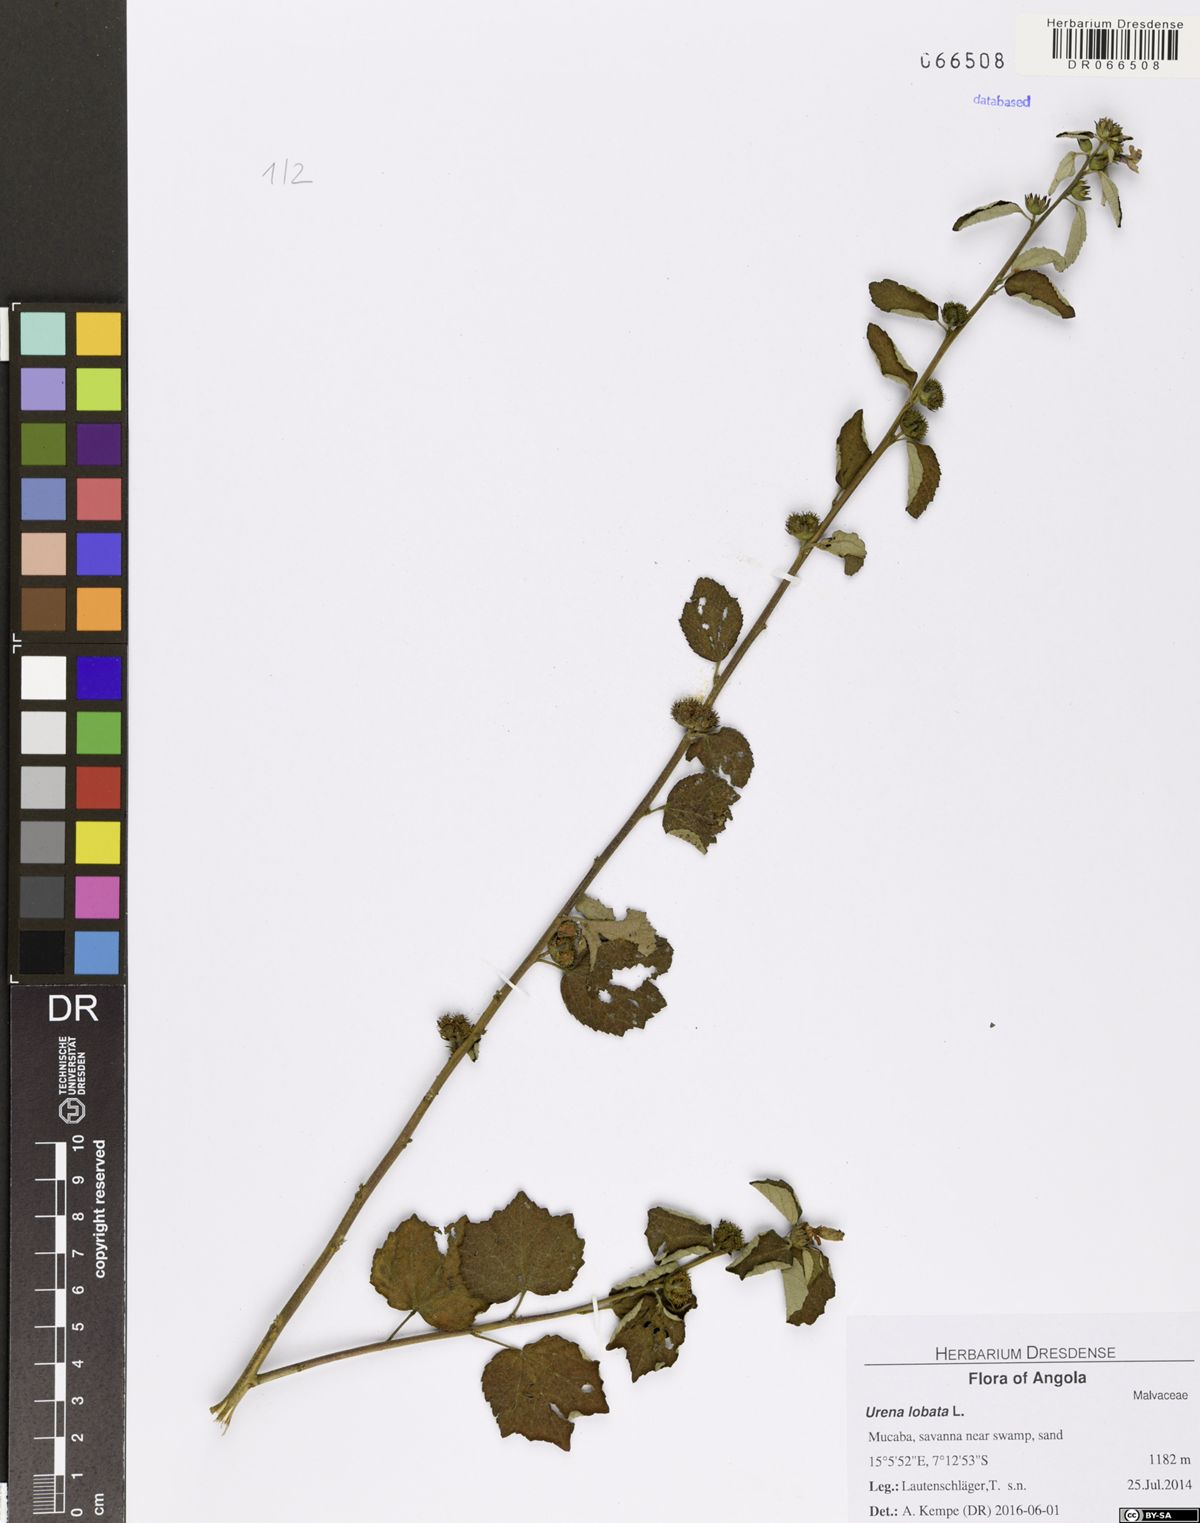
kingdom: Plantae
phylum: Tracheophyta
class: Magnoliopsida
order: Malvales
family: Malvaceae
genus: Urena
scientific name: Urena lobata
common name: Caesarweed
